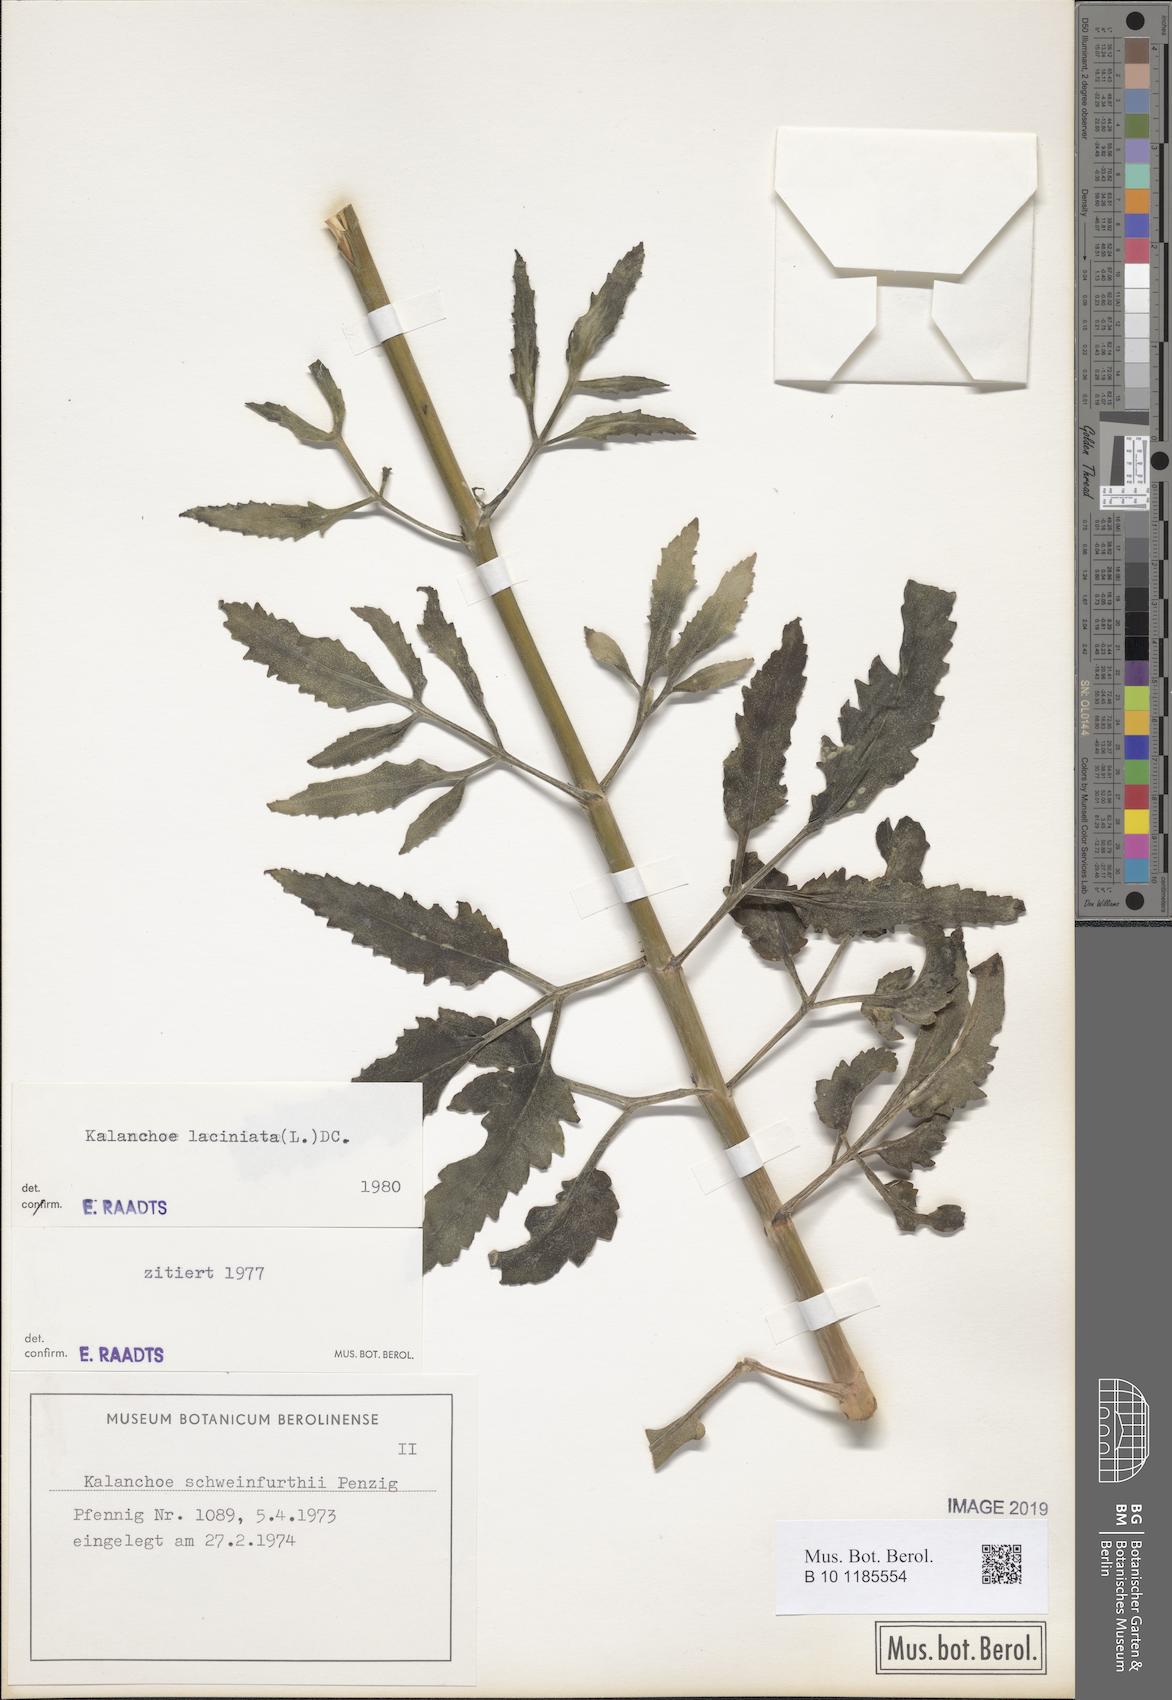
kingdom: Plantae
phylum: Tracheophyta
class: Magnoliopsida
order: Saxifragales
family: Crassulaceae
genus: Kalanchoe
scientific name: Kalanchoe laciniata
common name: Christmastree plant
